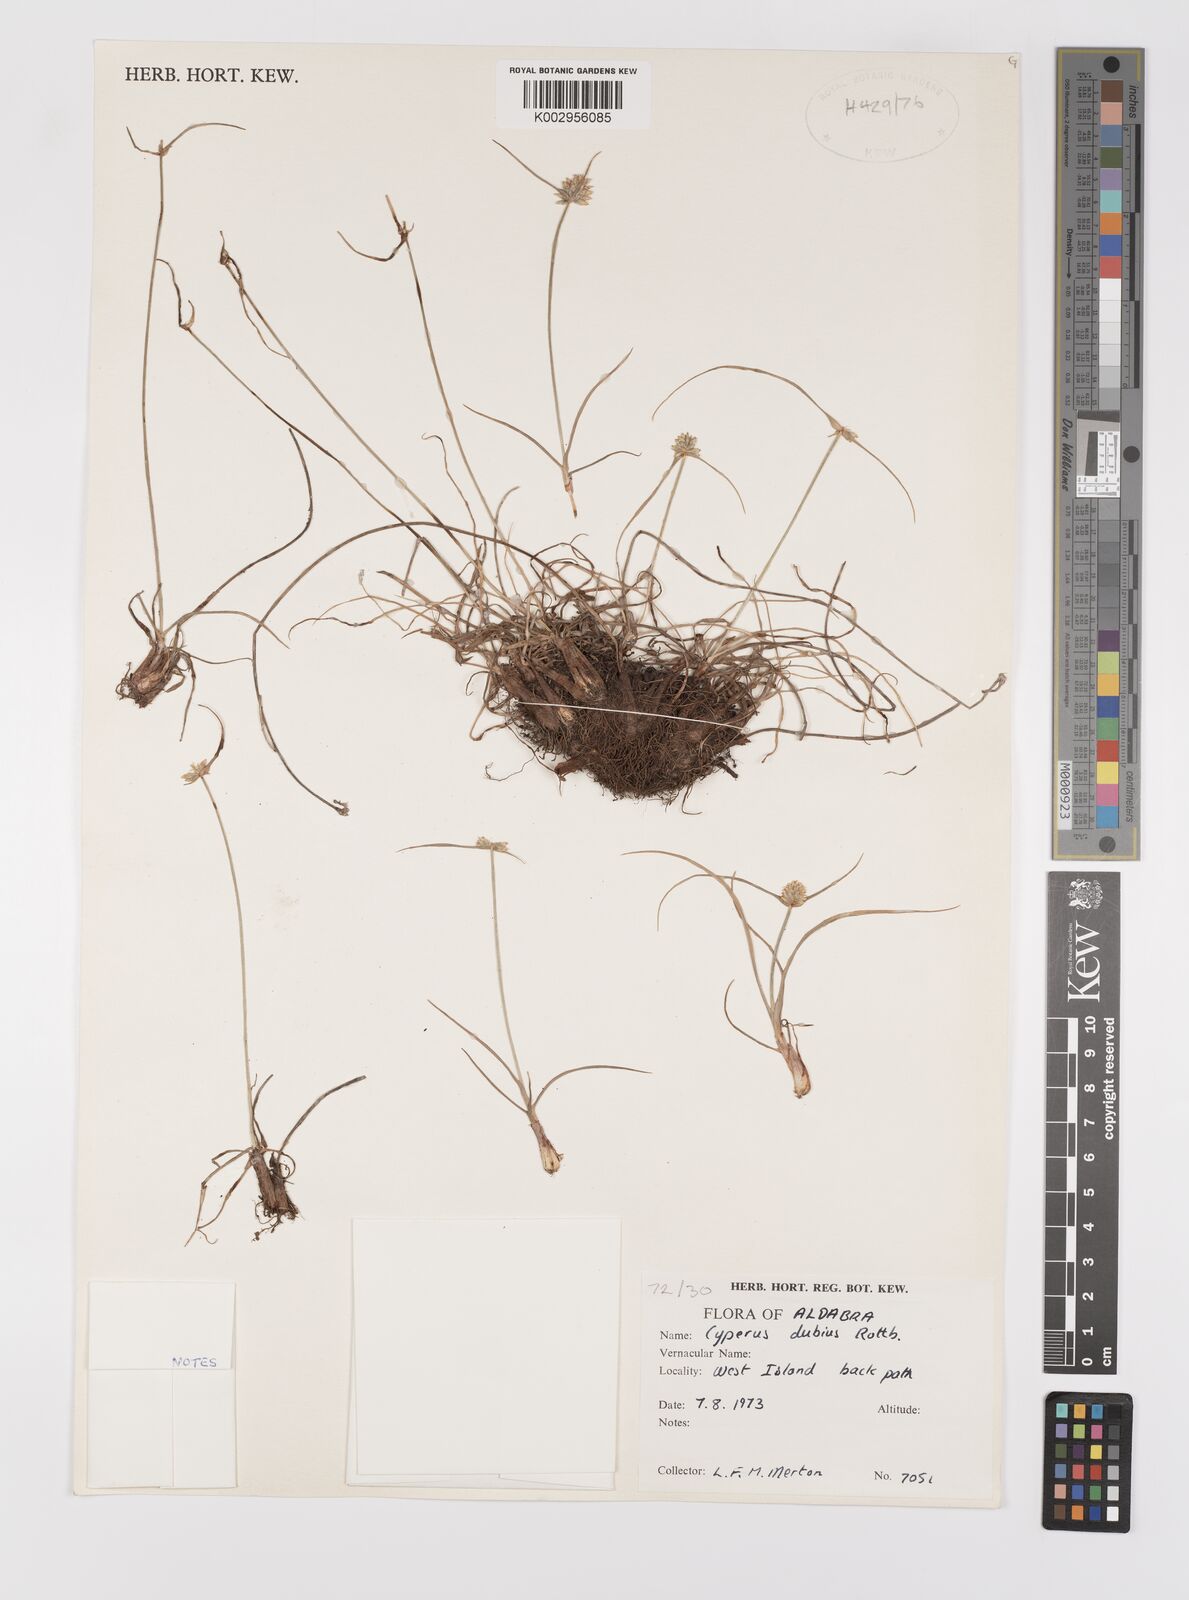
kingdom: Plantae
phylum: Tracheophyta
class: Liliopsida
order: Poales
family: Cyperaceae
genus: Cyperus
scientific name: Cyperus dubius
